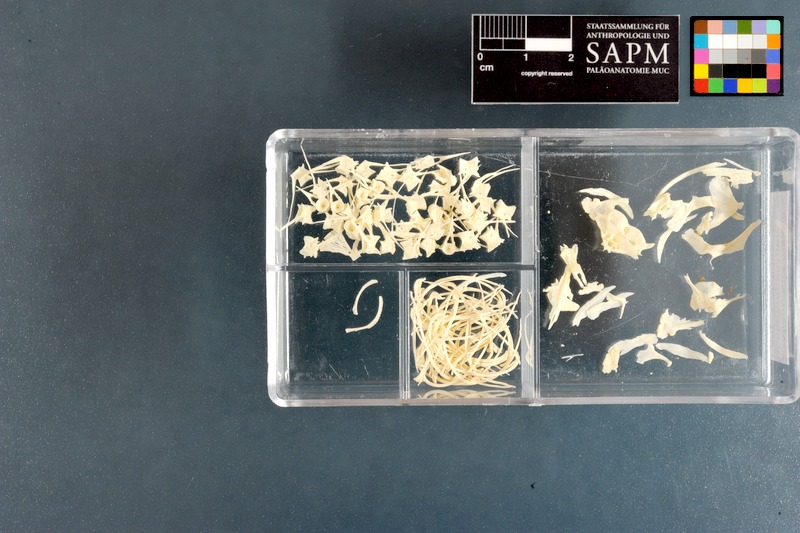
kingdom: Animalia
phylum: Chordata
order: Cypriniformes
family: Cobitidae
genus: Misgurnus
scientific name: Misgurnus fossilis
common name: Weatherfish
